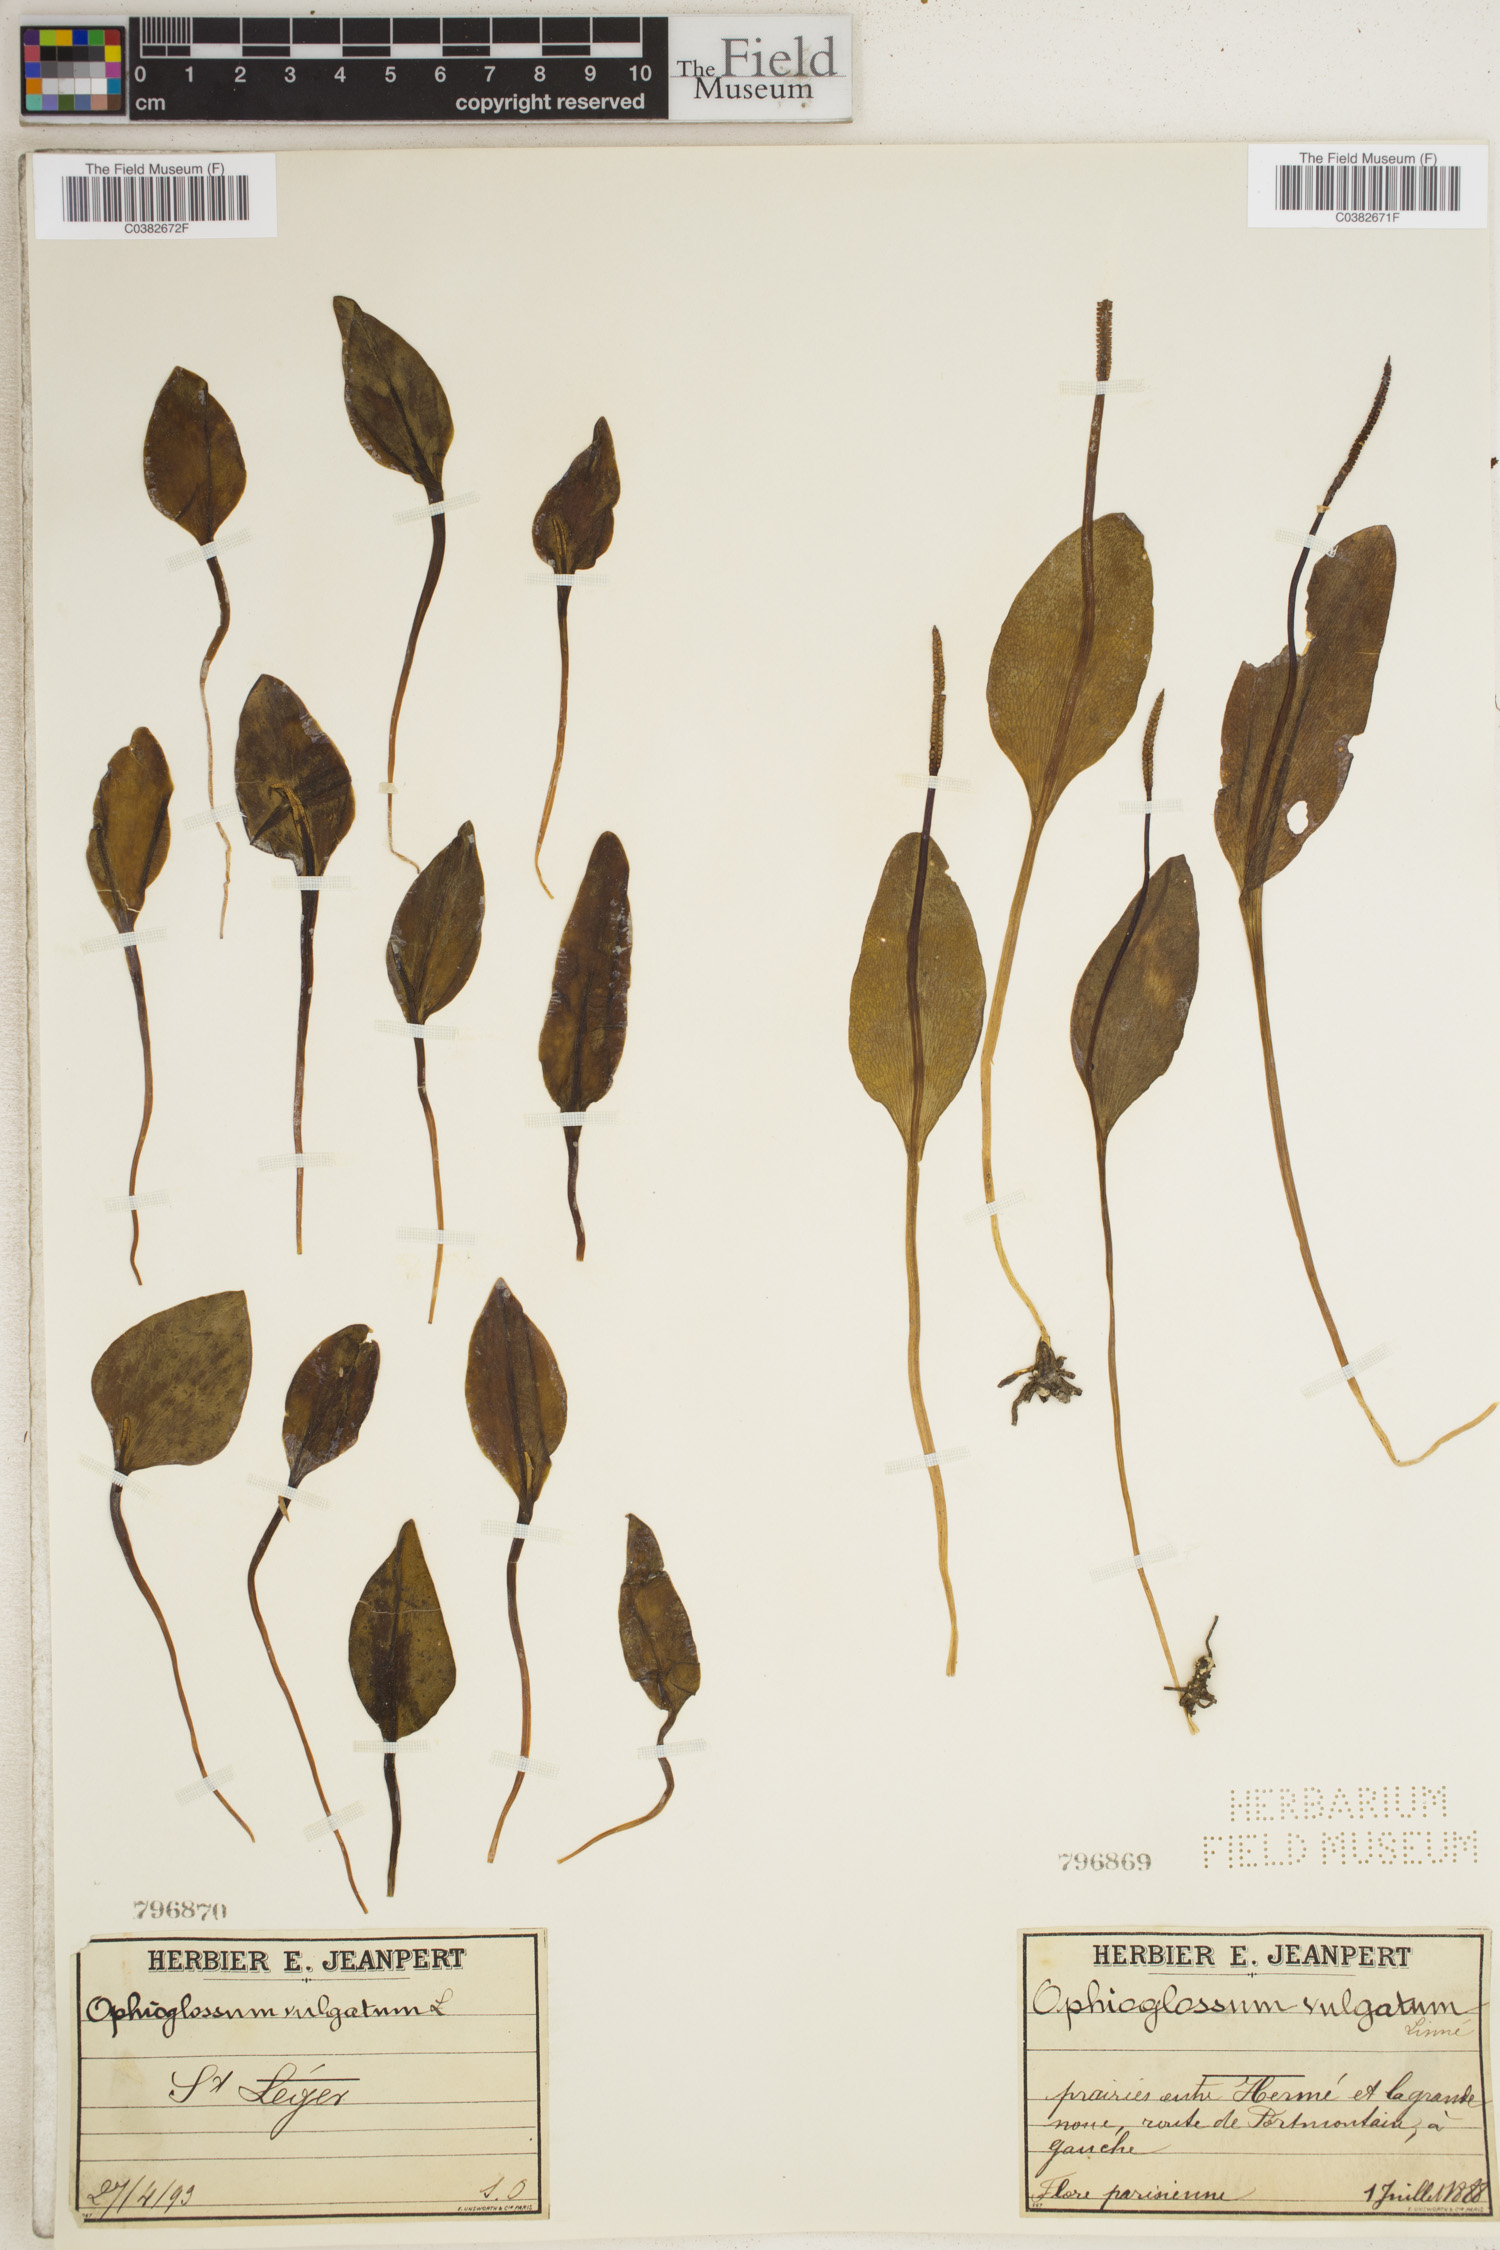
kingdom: Plantae
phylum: Tracheophyta
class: Polypodiopsida
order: Ophioglossales
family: Ophioglossaceae
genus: Ophioglossum
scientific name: Ophioglossum vulgatum
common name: Adder's-tongue
